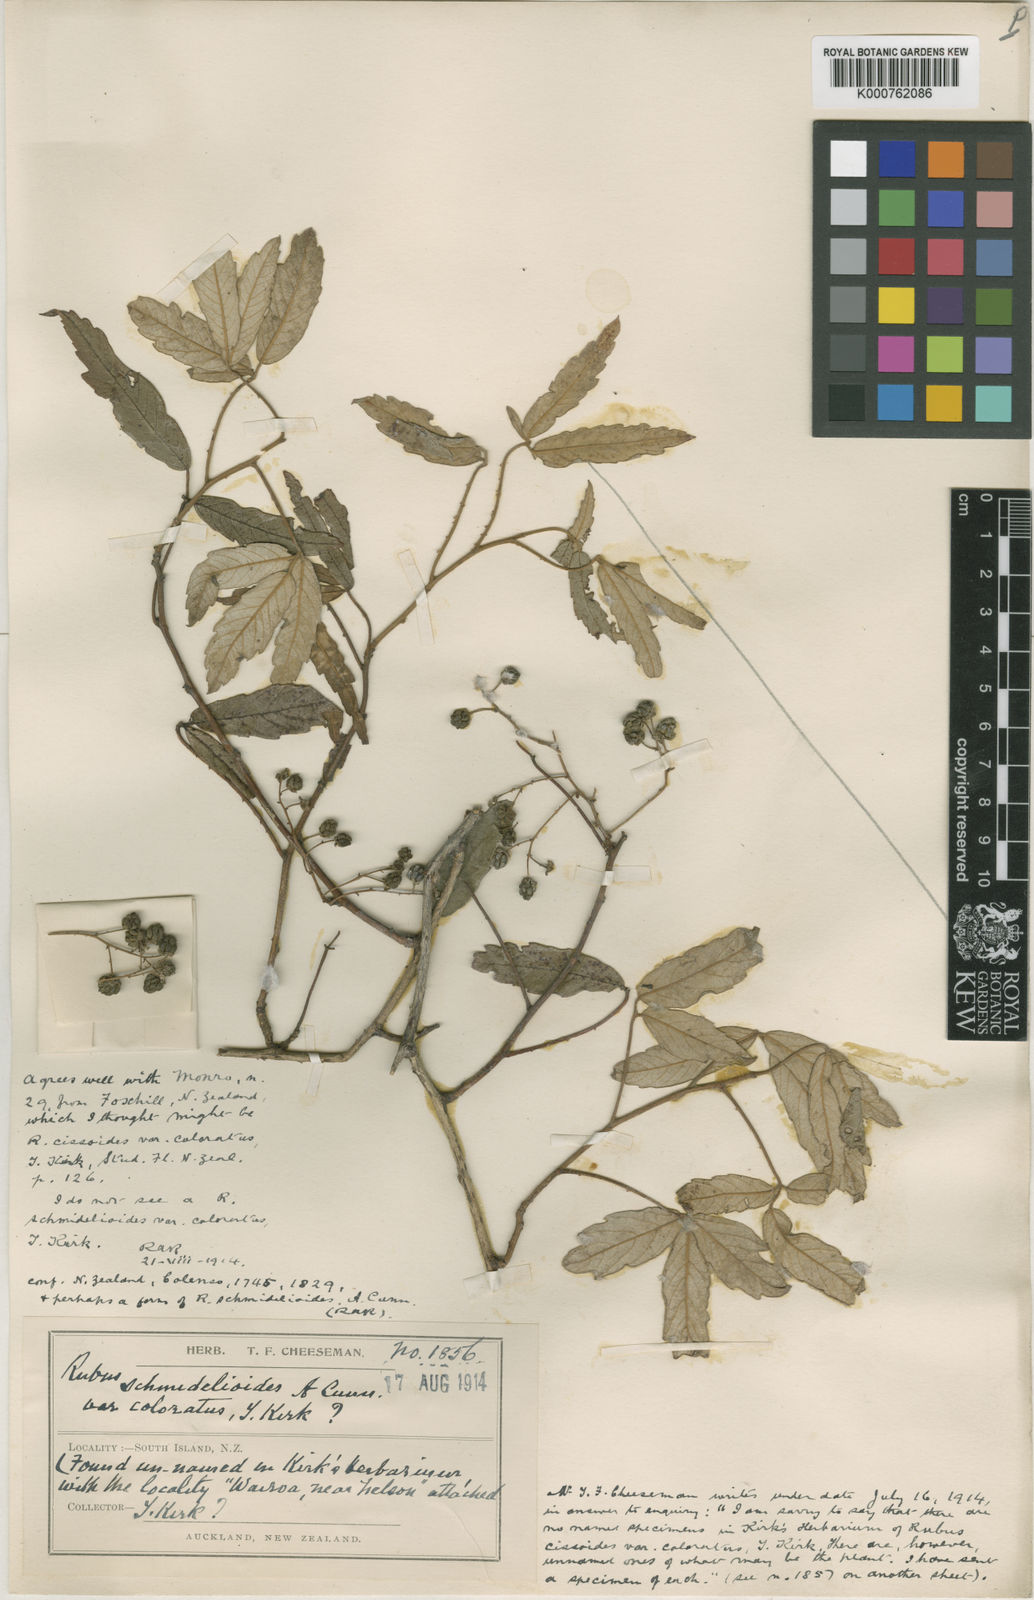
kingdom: Plantae
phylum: Tracheophyta
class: Magnoliopsida
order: Rosales
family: Rosaceae
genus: Rubus
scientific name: Rubus schmidelioides
